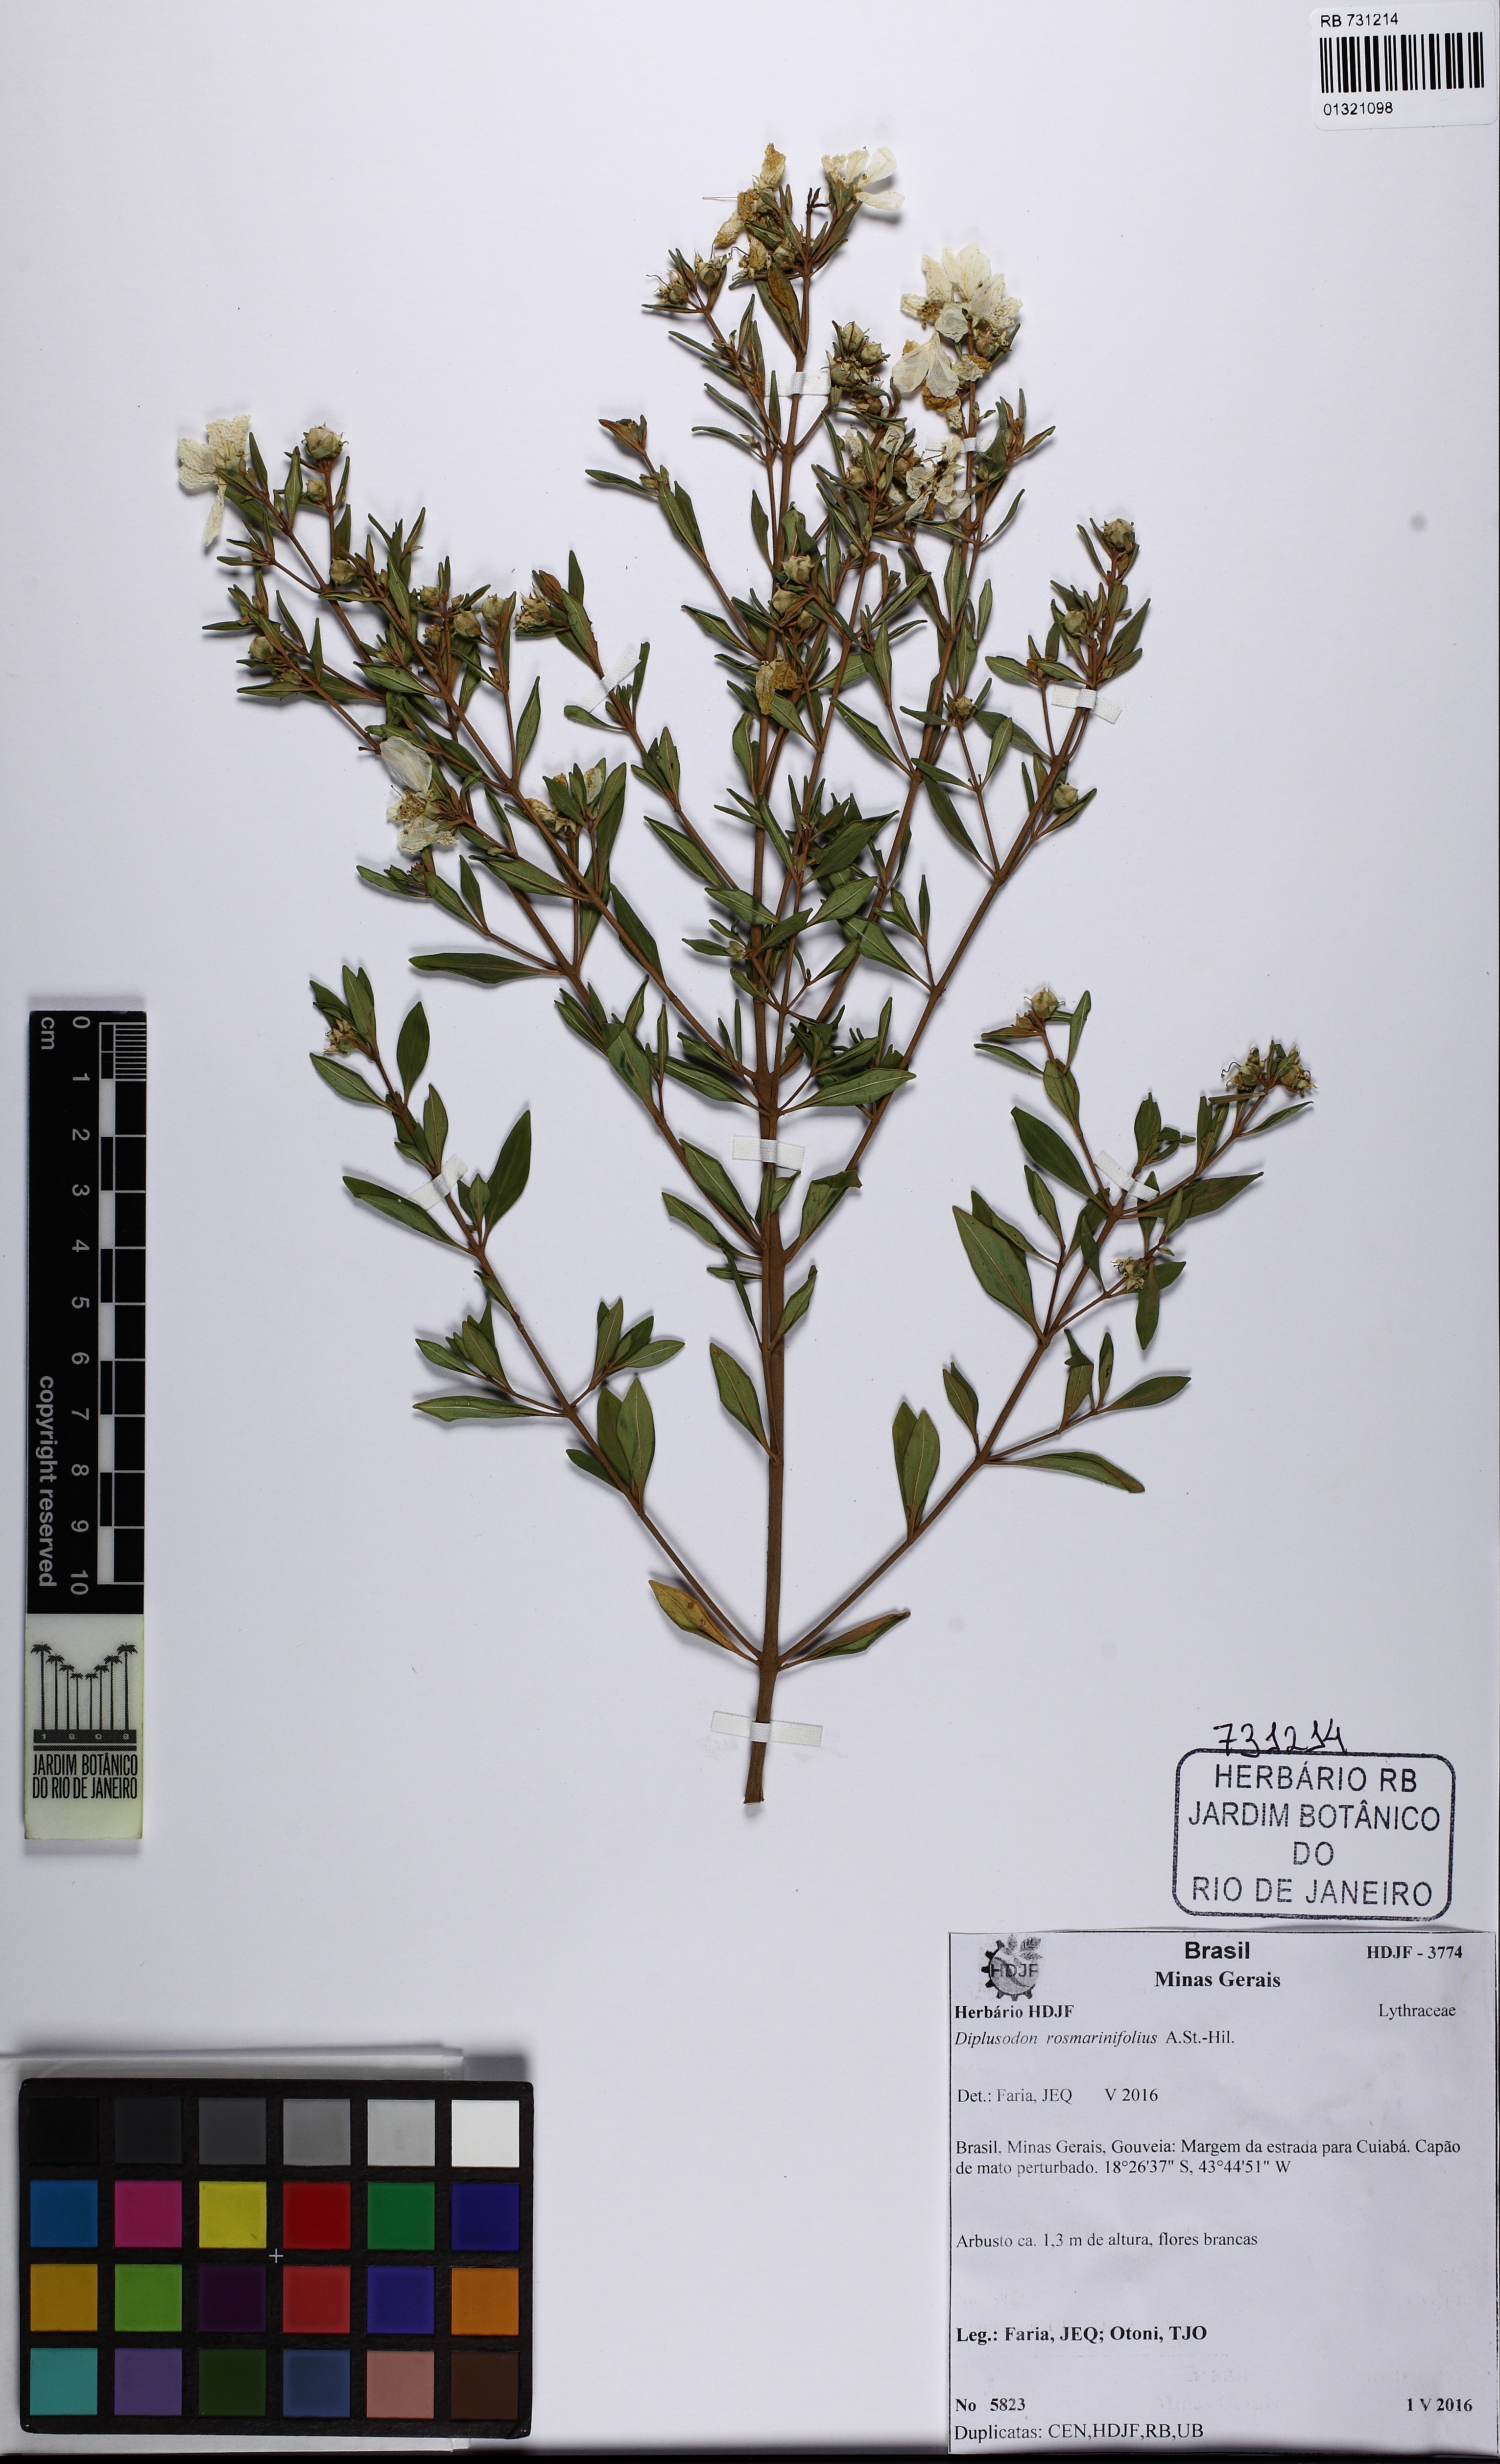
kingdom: Plantae
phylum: Tracheophyta
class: Magnoliopsida
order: Myrtales
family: Lythraceae
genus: Diplusodon
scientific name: Diplusodon rosmarinifolius
